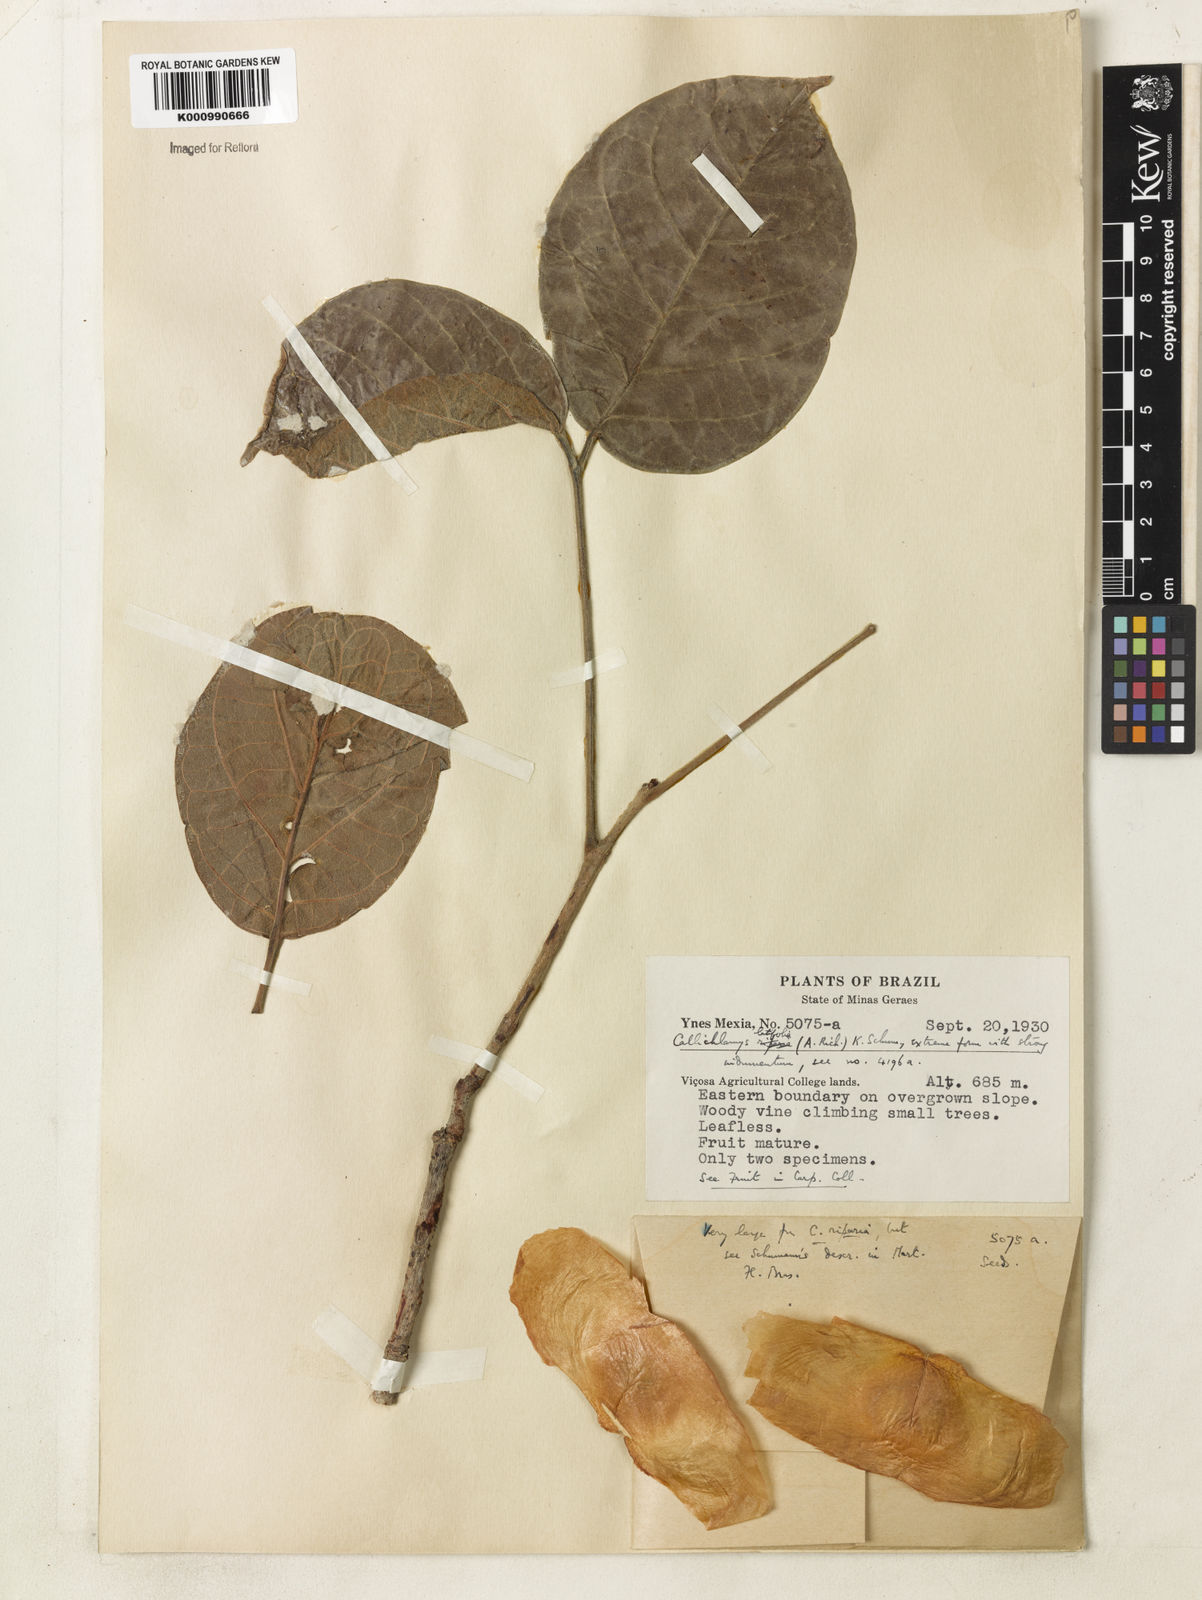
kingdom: Plantae
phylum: Tracheophyta
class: Magnoliopsida
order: Lamiales
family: Bignoniaceae
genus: Callichlamys
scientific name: Callichlamys latifolia
